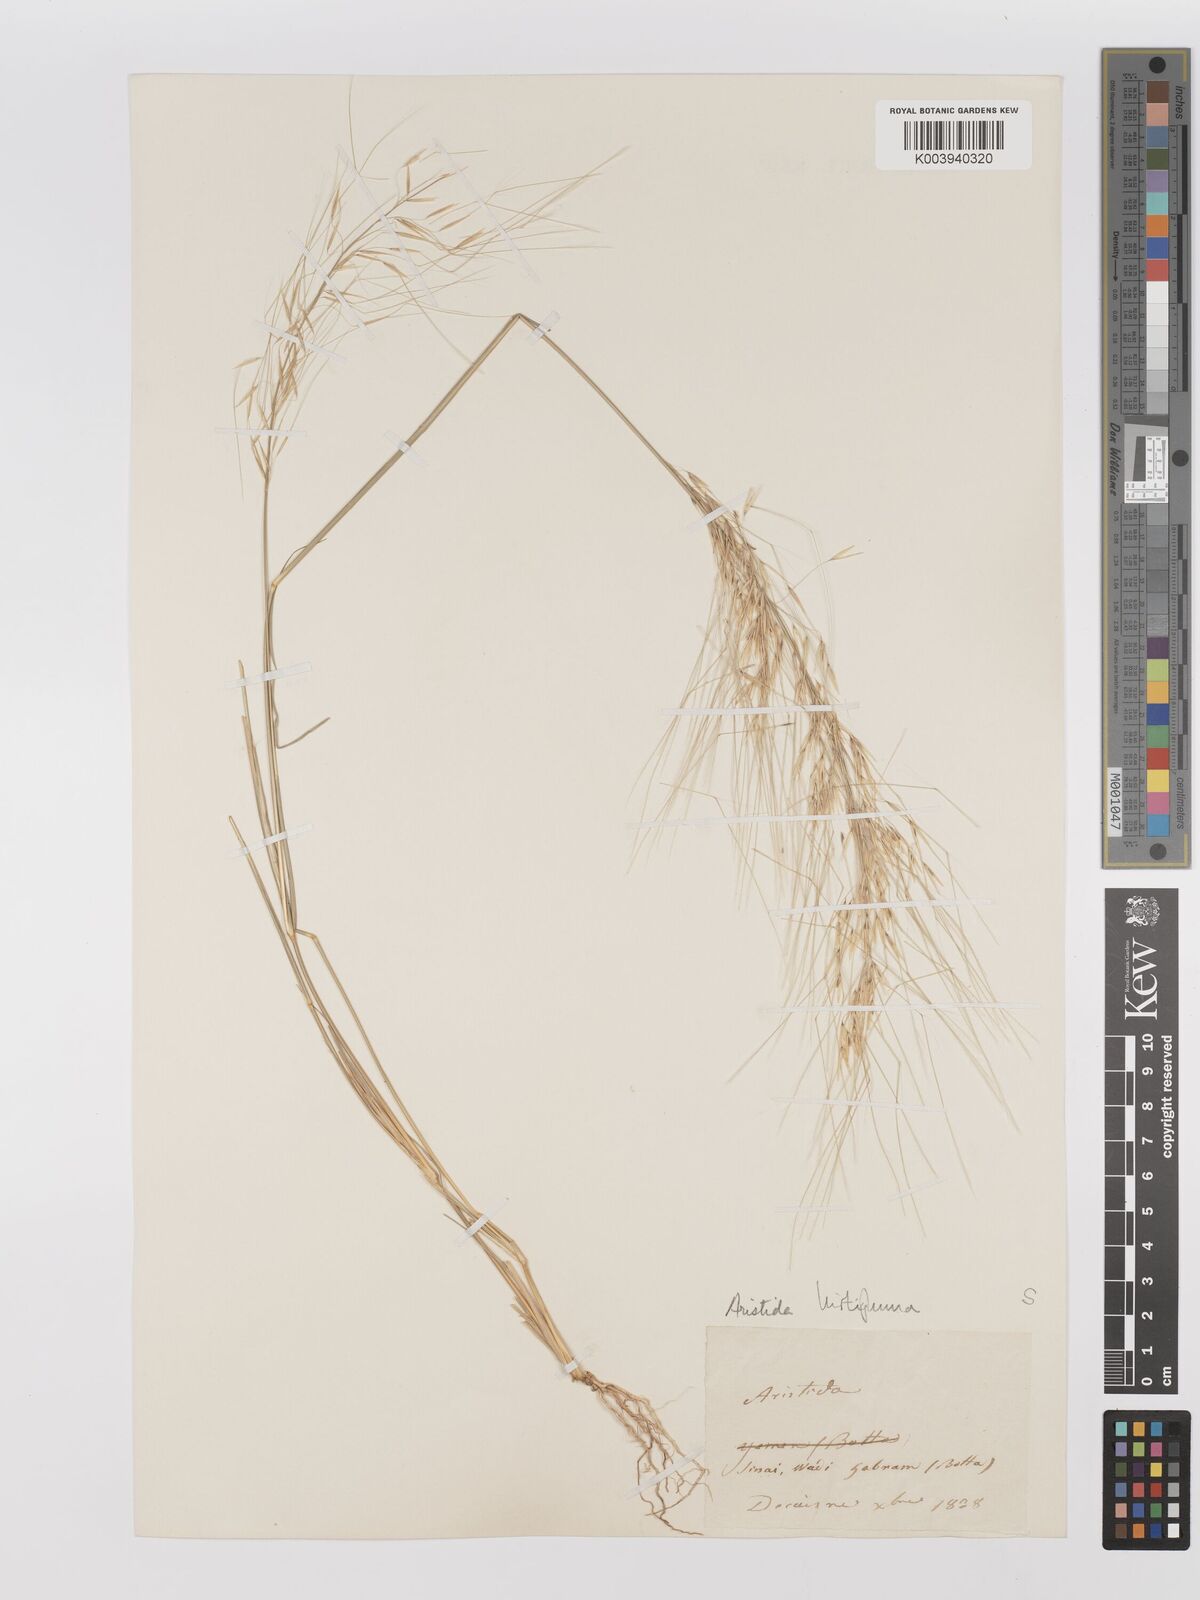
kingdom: Plantae
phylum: Tracheophyta
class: Liliopsida
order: Poales
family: Poaceae
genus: Stipagrostis
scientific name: Stipagrostis hirtigluma
